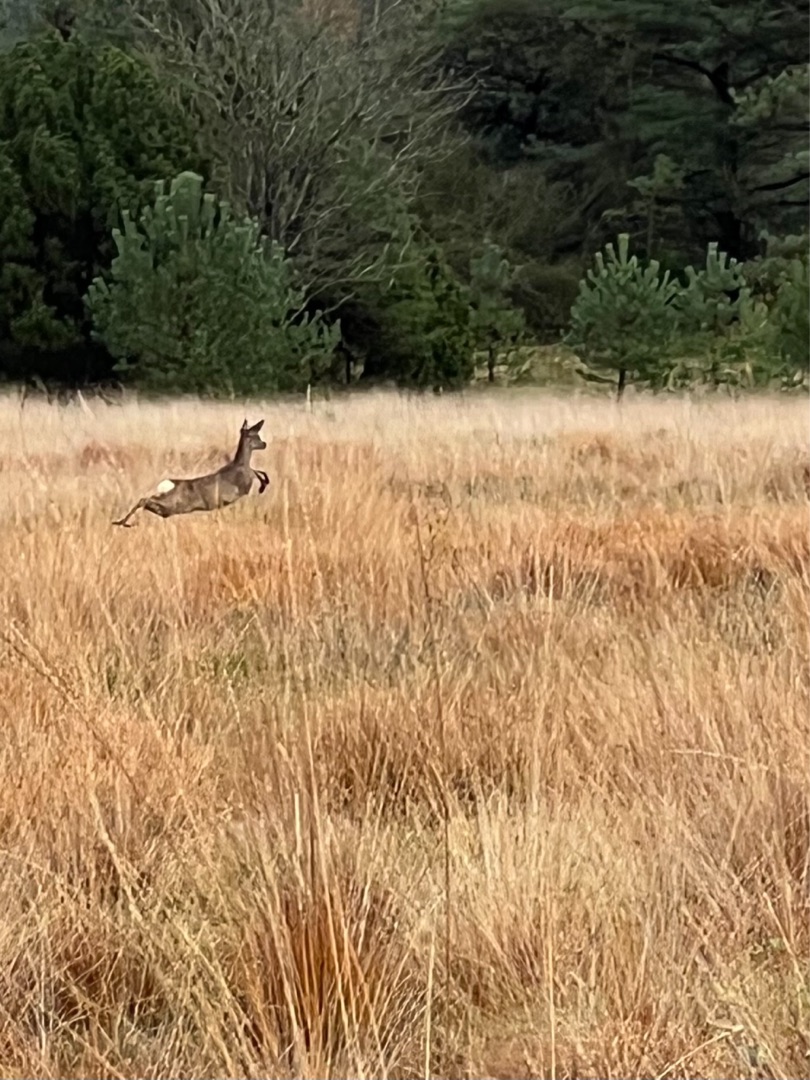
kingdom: Animalia
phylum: Chordata
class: Mammalia
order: Artiodactyla
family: Cervidae
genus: Capreolus
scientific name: Capreolus capreolus
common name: Rådyr
